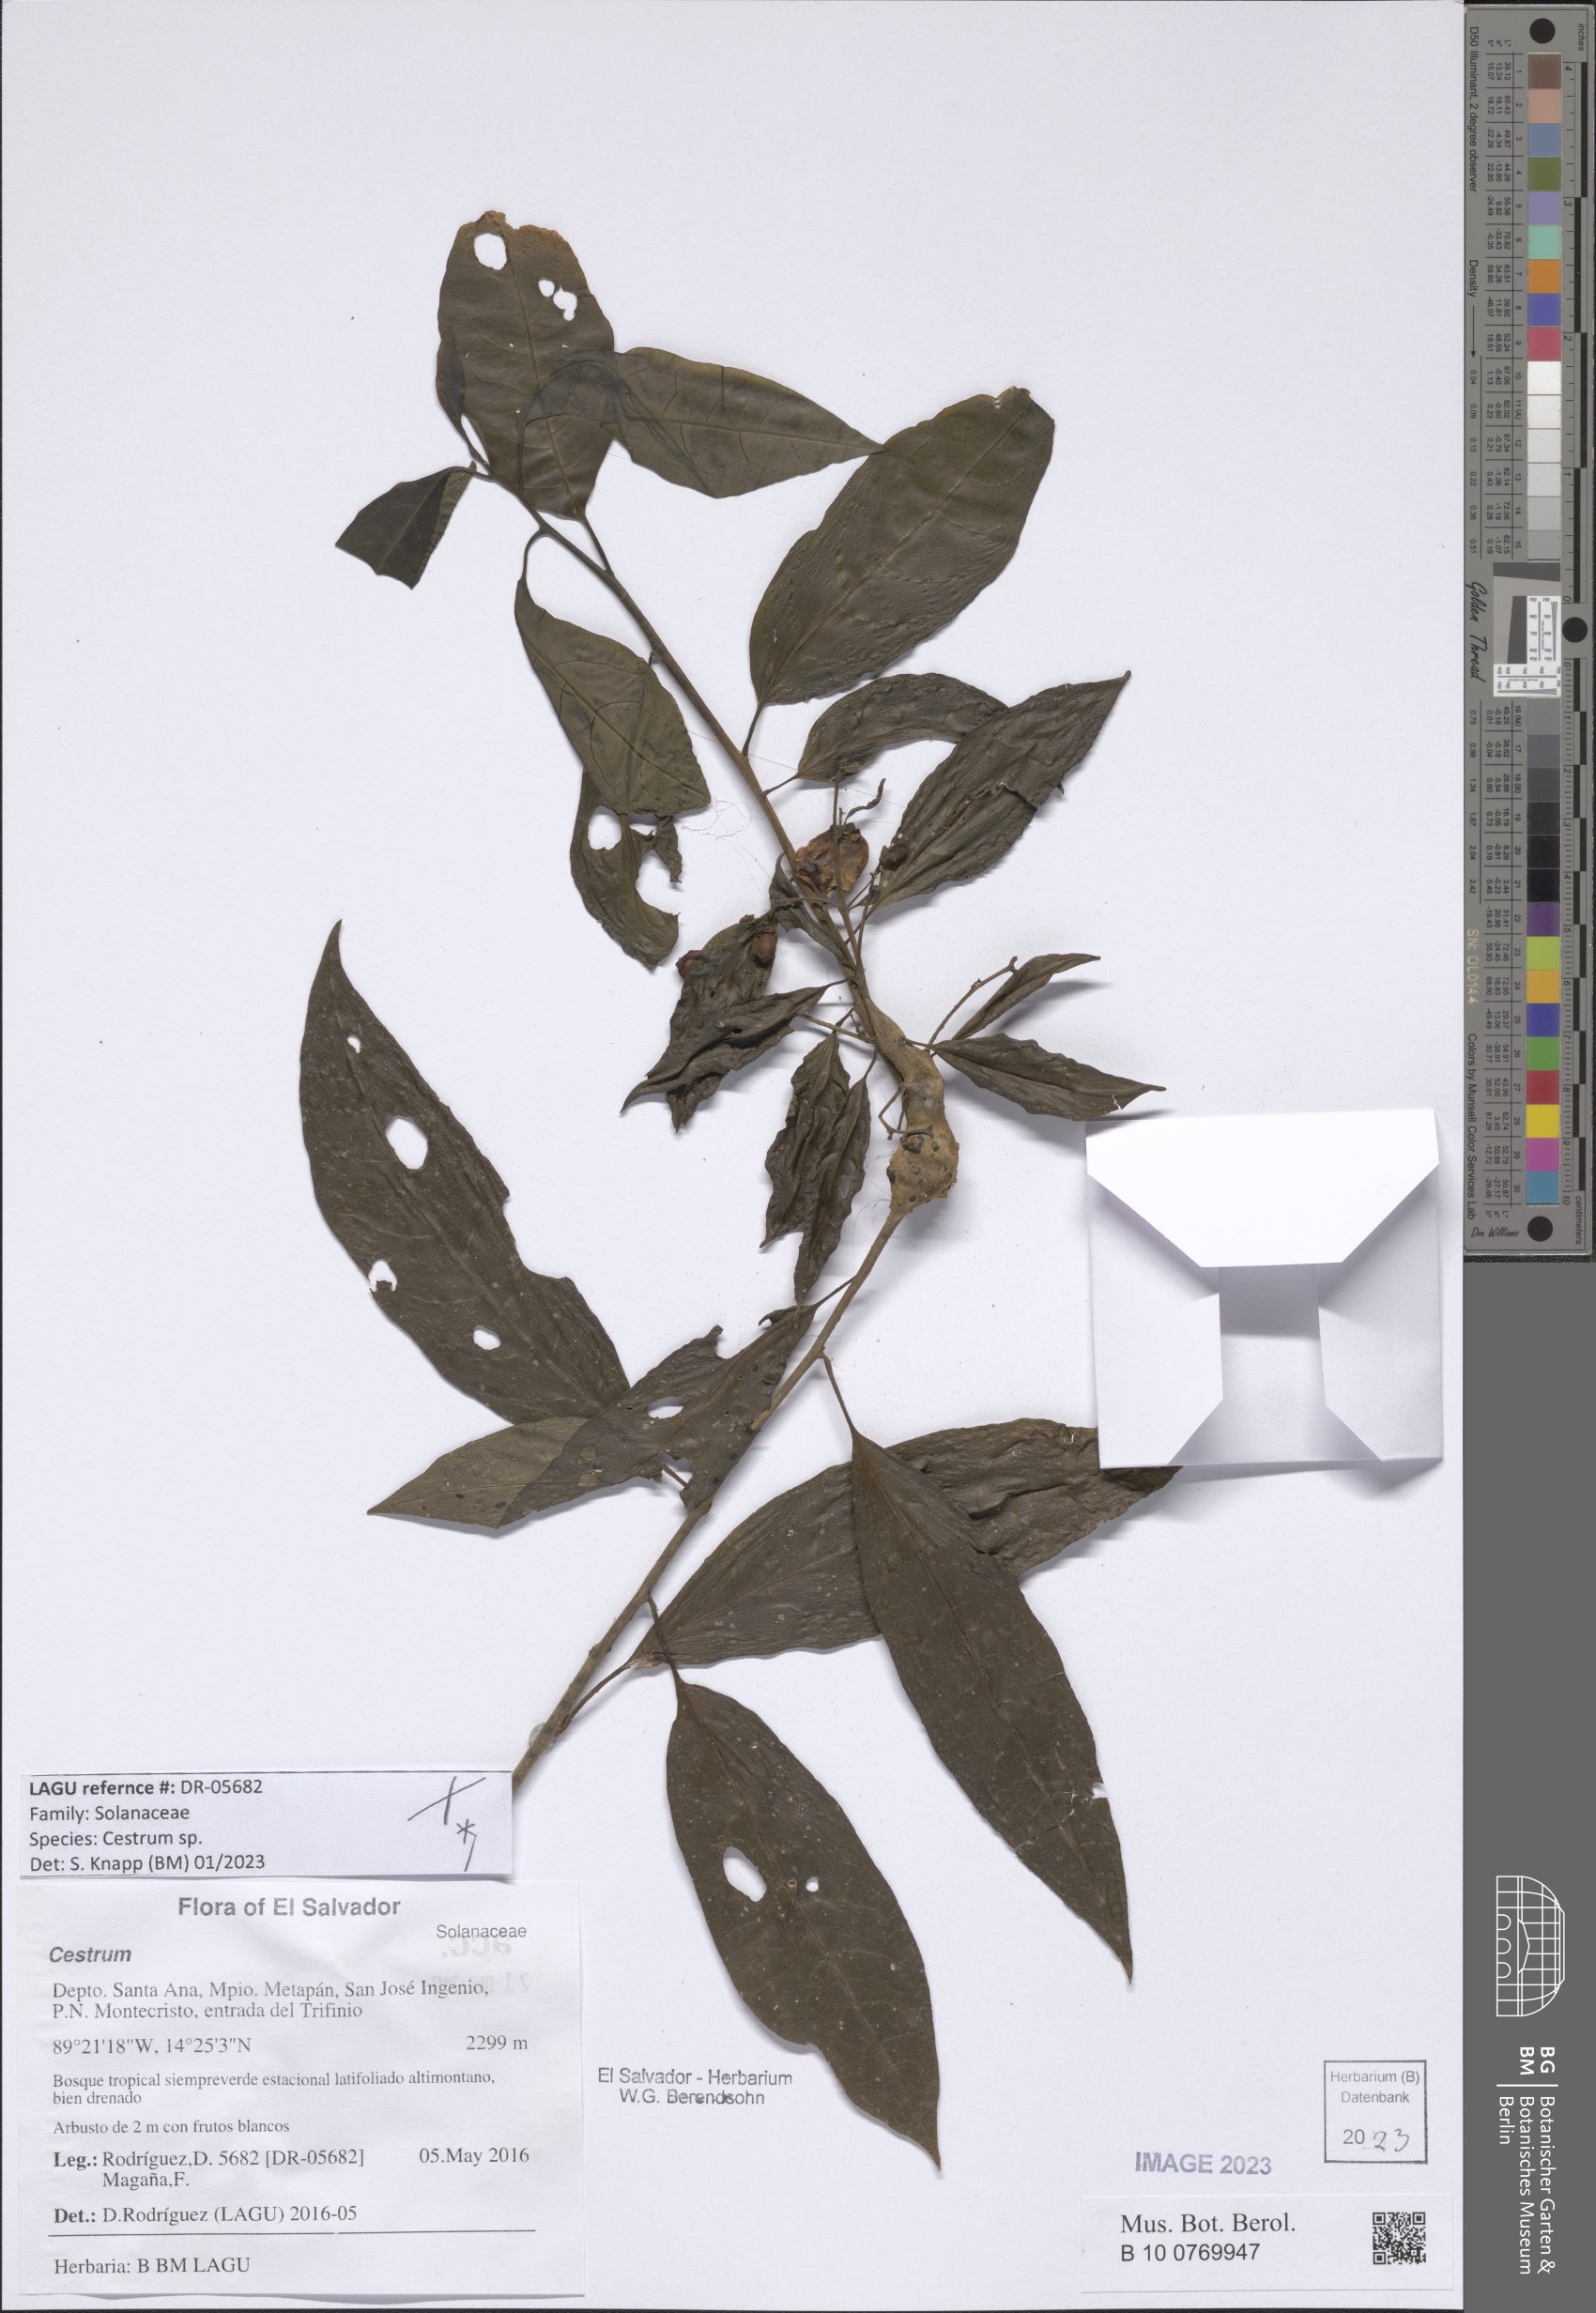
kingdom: Plantae
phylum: Tracheophyta
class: Magnoliopsida
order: Solanales
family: Solanaceae
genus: Cestrum
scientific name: Cestrum
